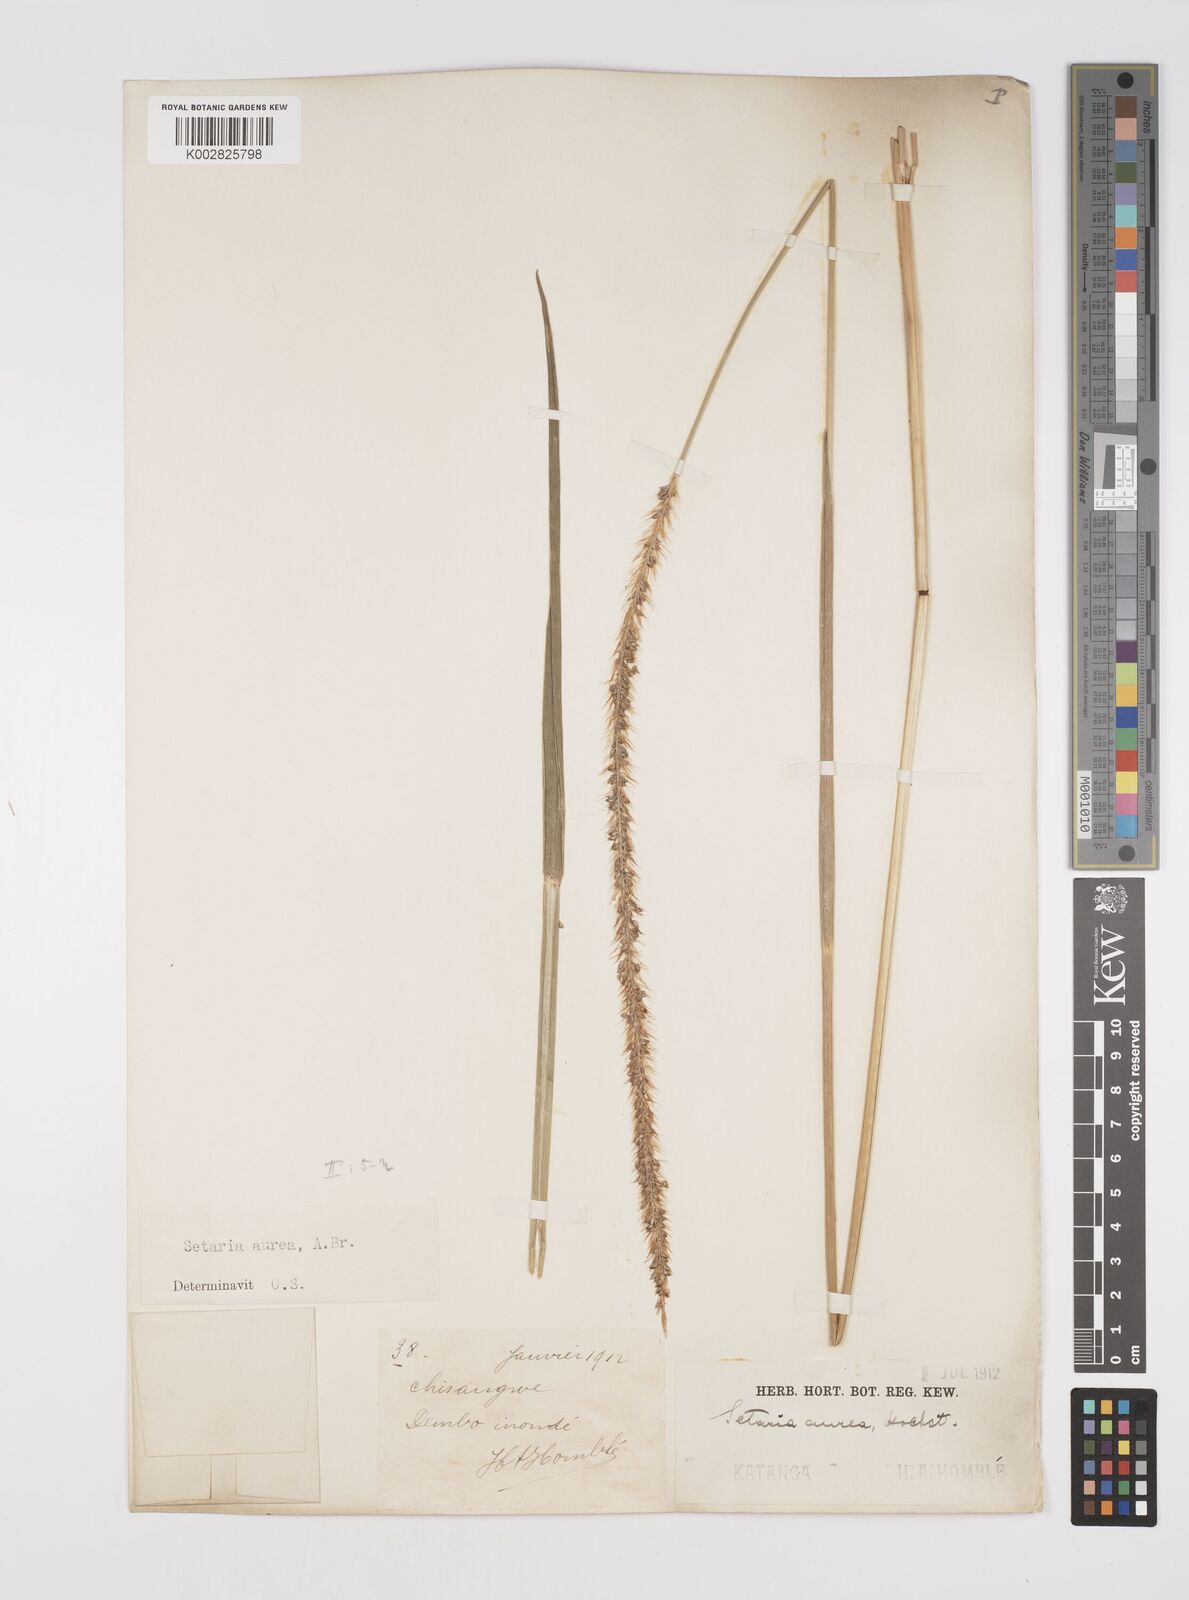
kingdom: Plantae
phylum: Tracheophyta
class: Liliopsida
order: Poales
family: Poaceae
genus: Setaria
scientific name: Setaria sphacelata
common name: African bristlegrass
